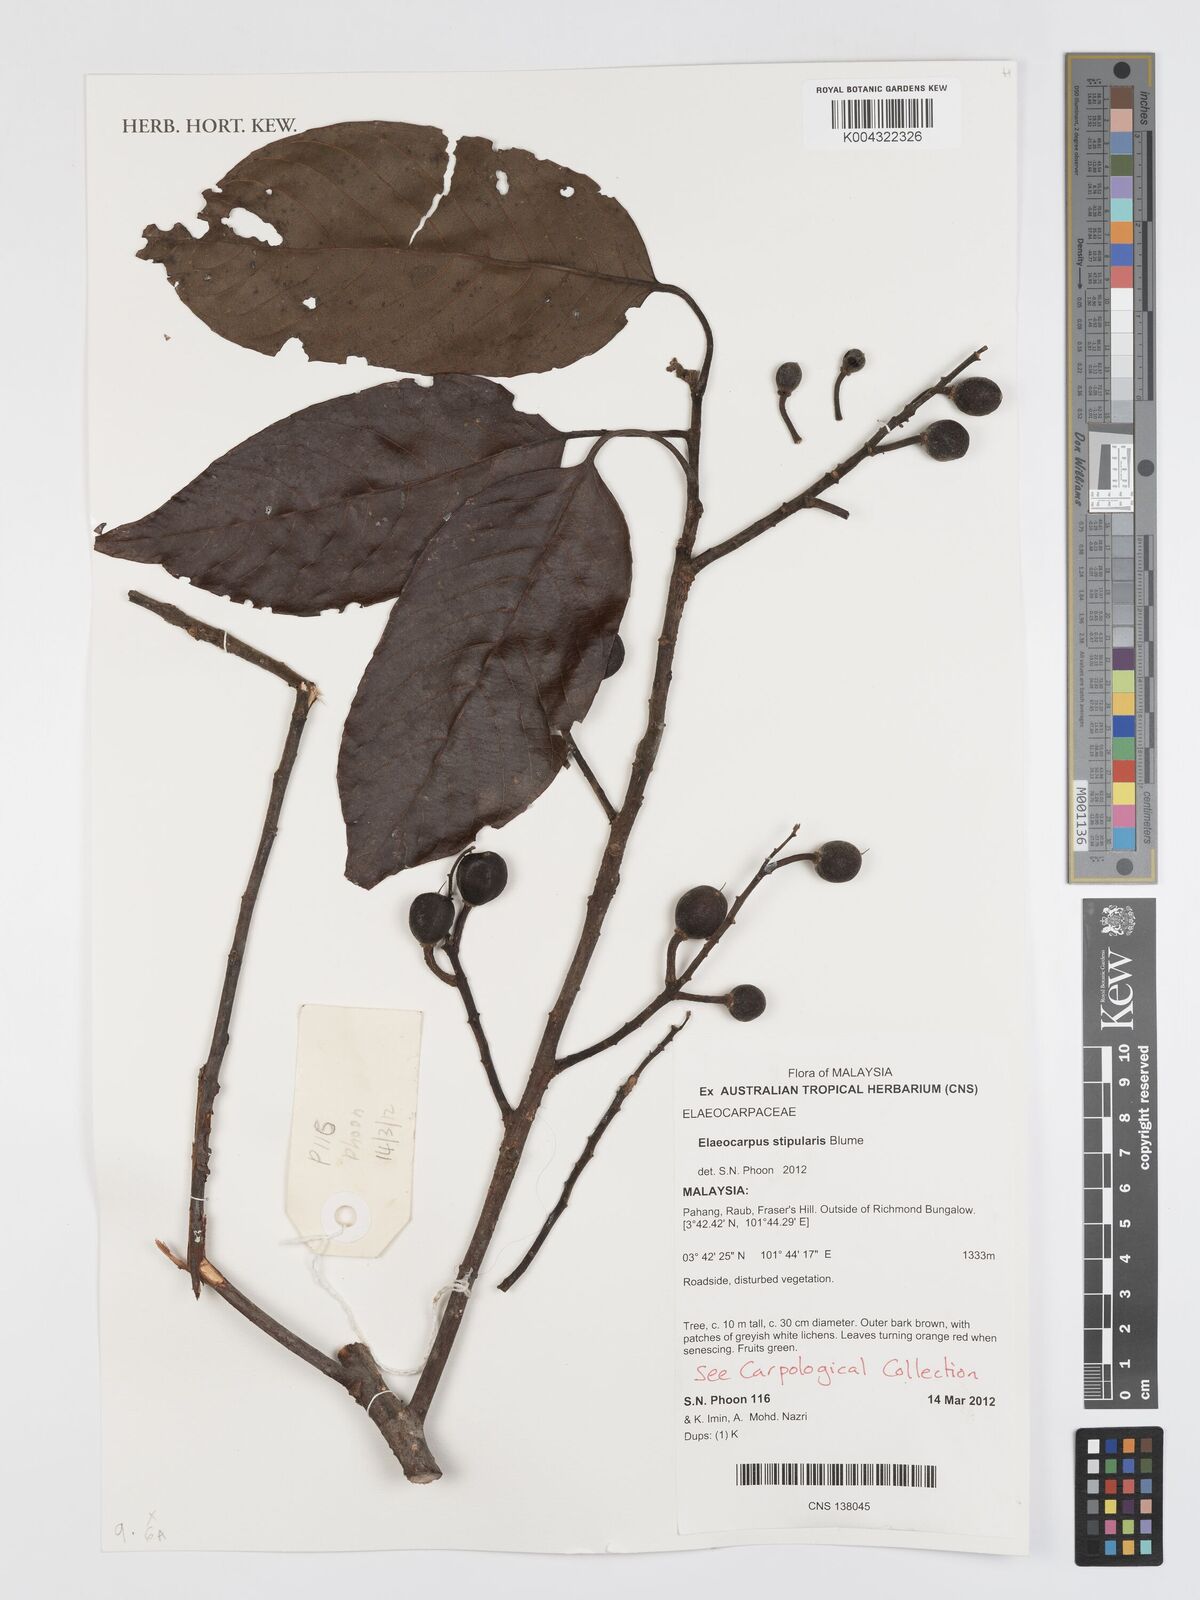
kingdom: Plantae
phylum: Tracheophyta
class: Magnoliopsida
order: Oxalidales
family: Elaeocarpaceae
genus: Elaeocarpus
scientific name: Elaeocarpus stipularis
